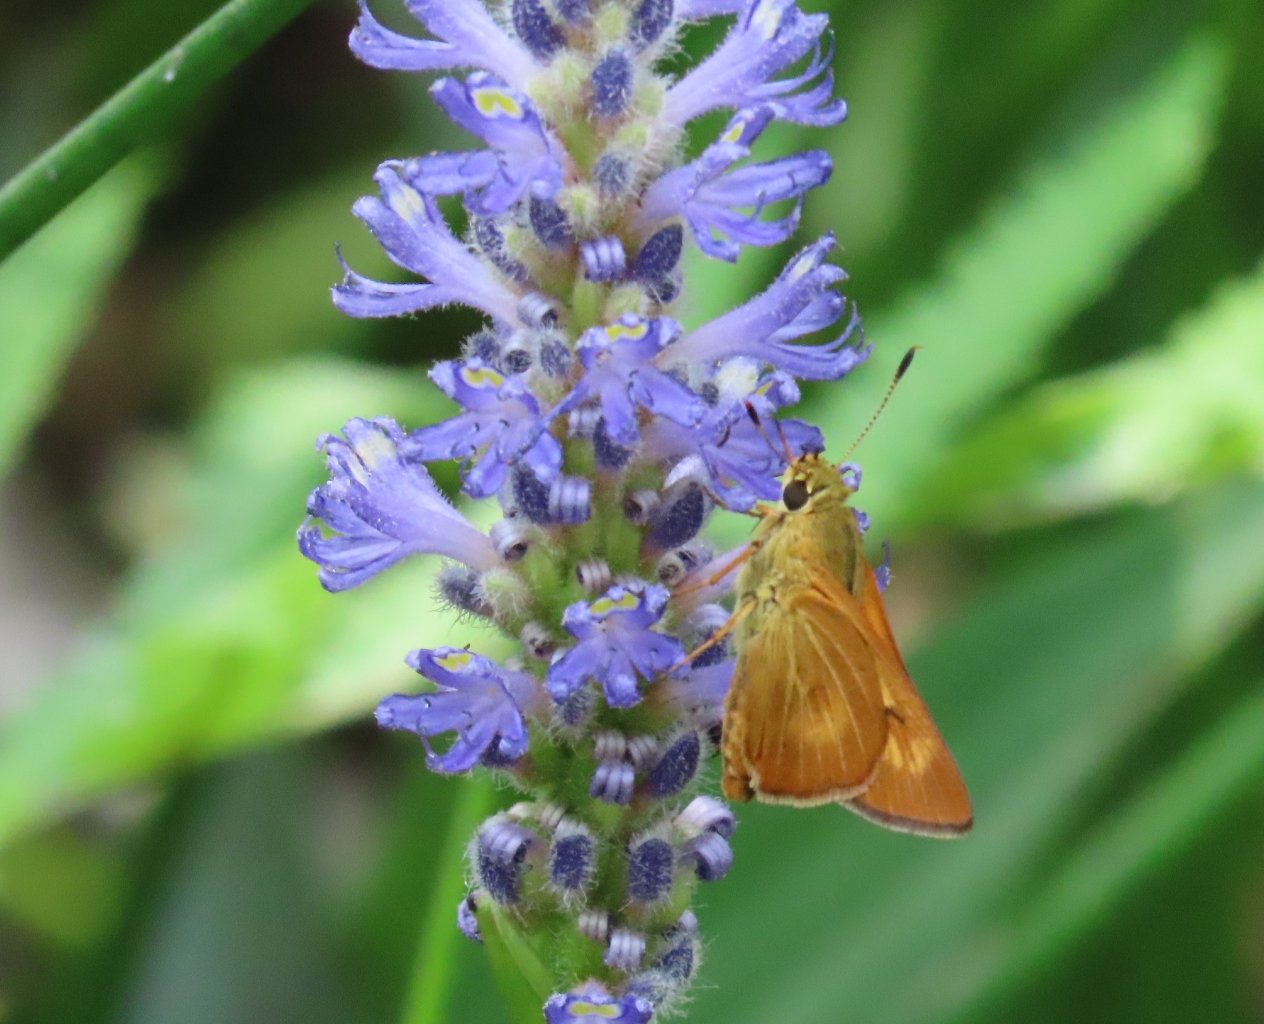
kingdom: Animalia
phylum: Arthropoda
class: Insecta
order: Lepidoptera
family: Hesperiidae
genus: Problema
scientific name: Problema byssus
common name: Byssus Skipper
